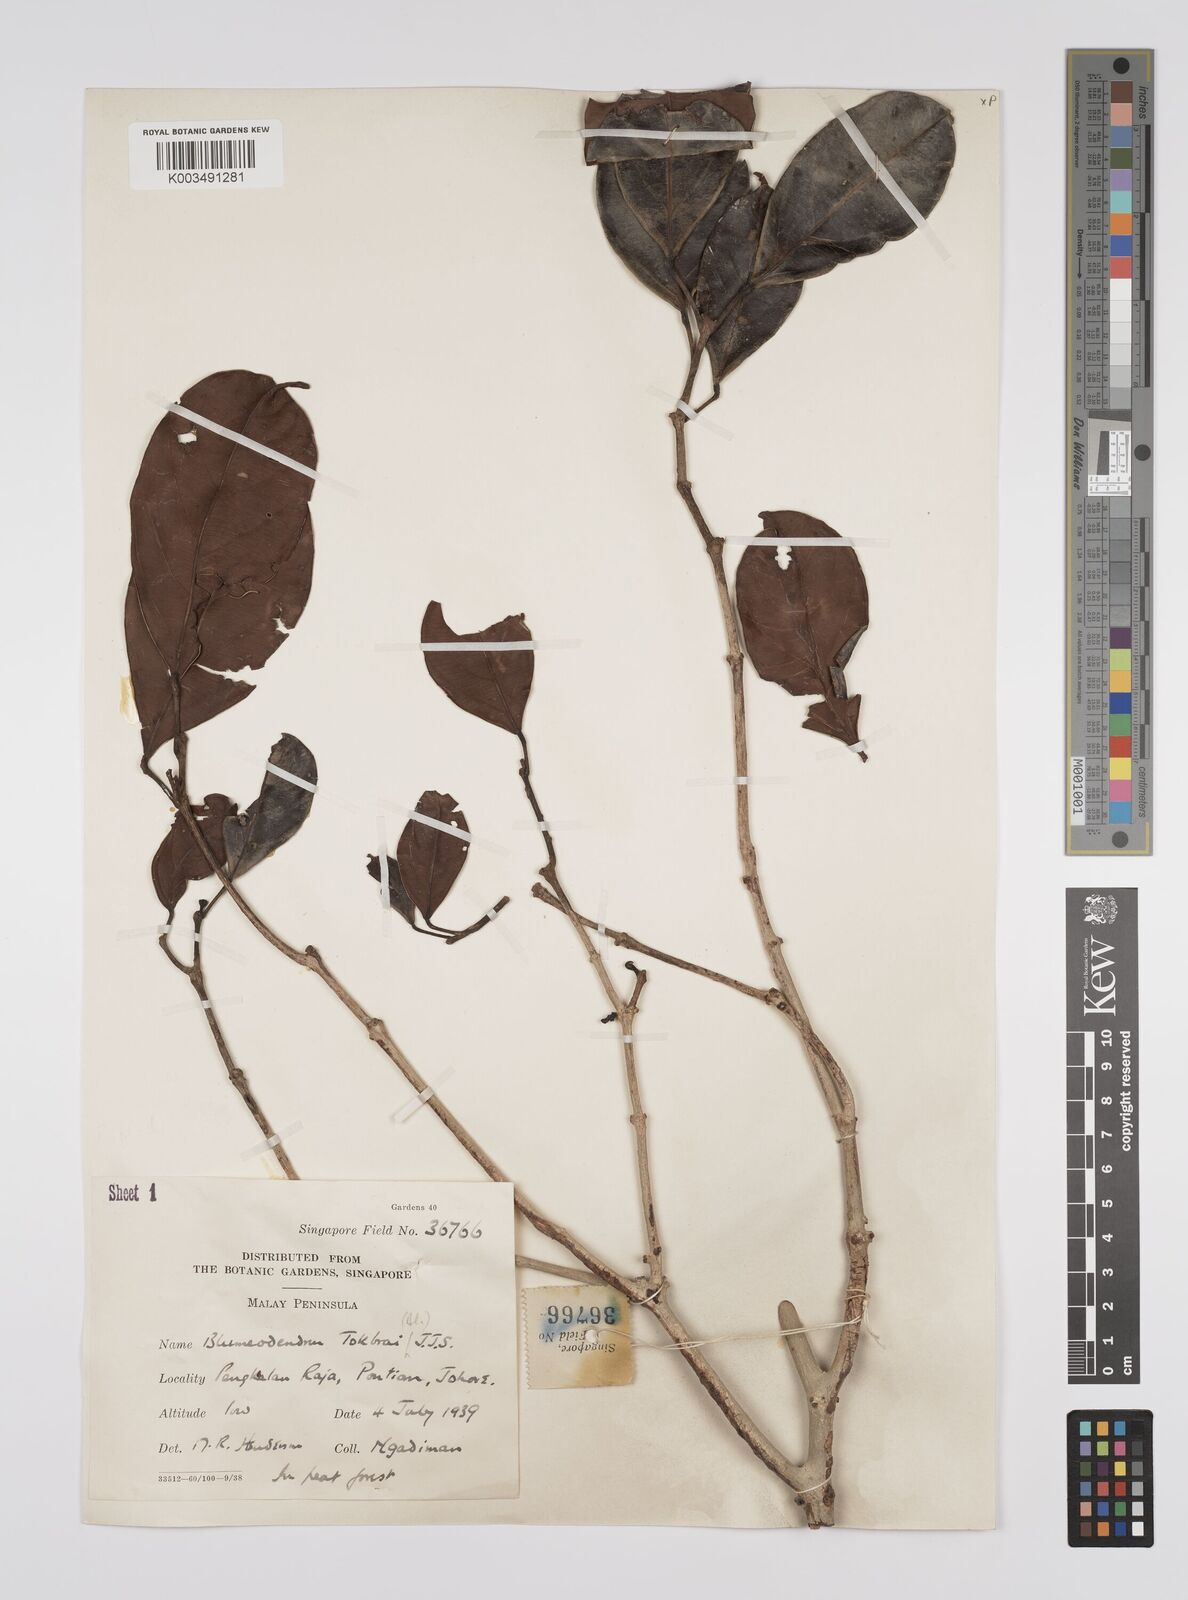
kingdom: Plantae
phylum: Tracheophyta
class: Magnoliopsida
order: Malpighiales
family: Euphorbiaceae
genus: Blumeodendron
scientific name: Blumeodendron tokbrai
